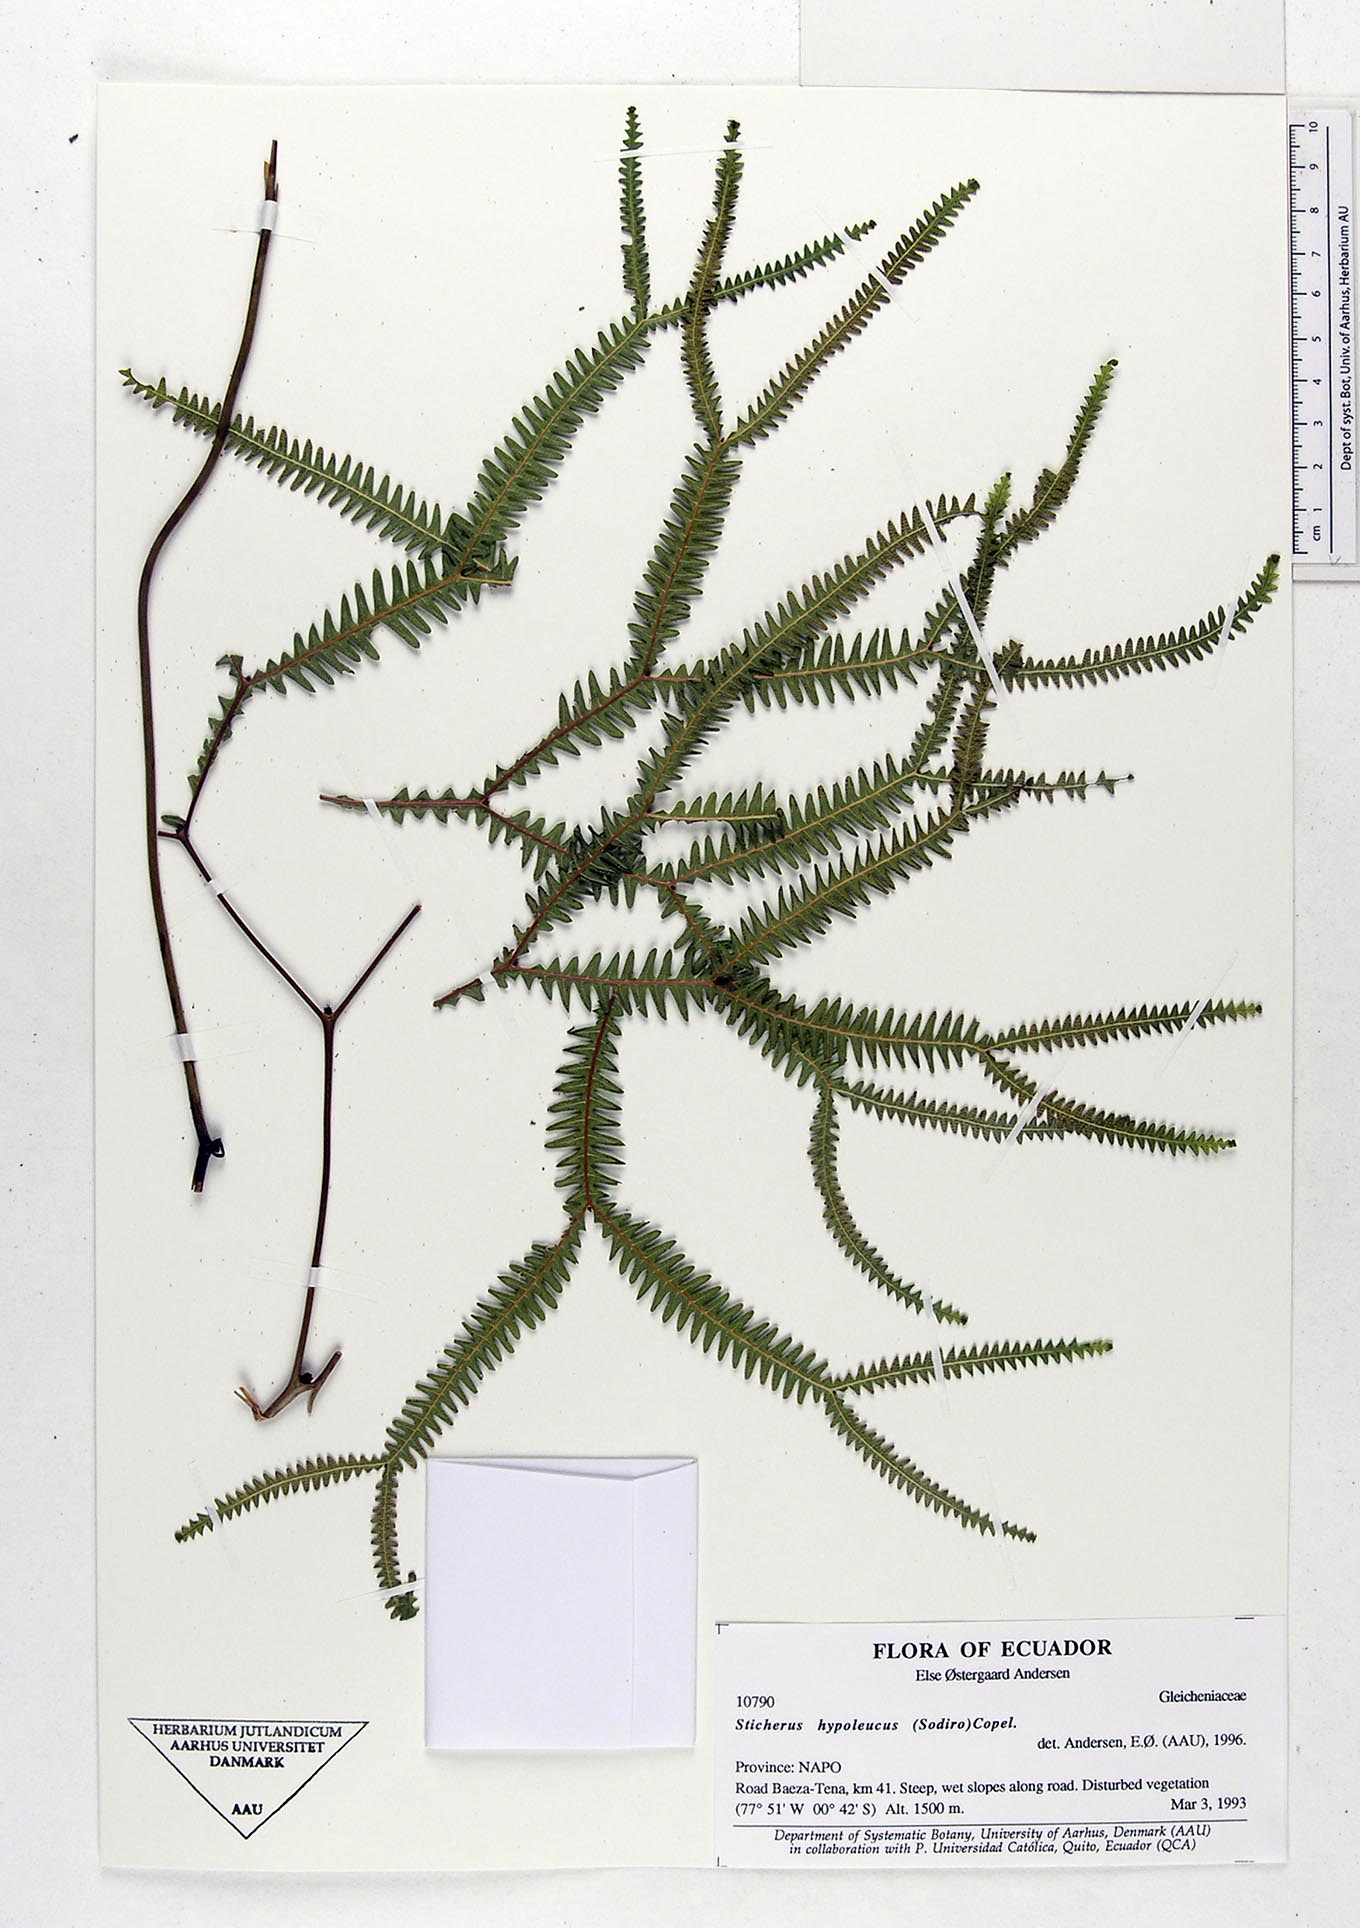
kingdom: Plantae
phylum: Tracheophyta
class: Polypodiopsida
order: Gleicheniales
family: Gleicheniaceae
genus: Sticherus
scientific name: Sticherus hypoleucus
